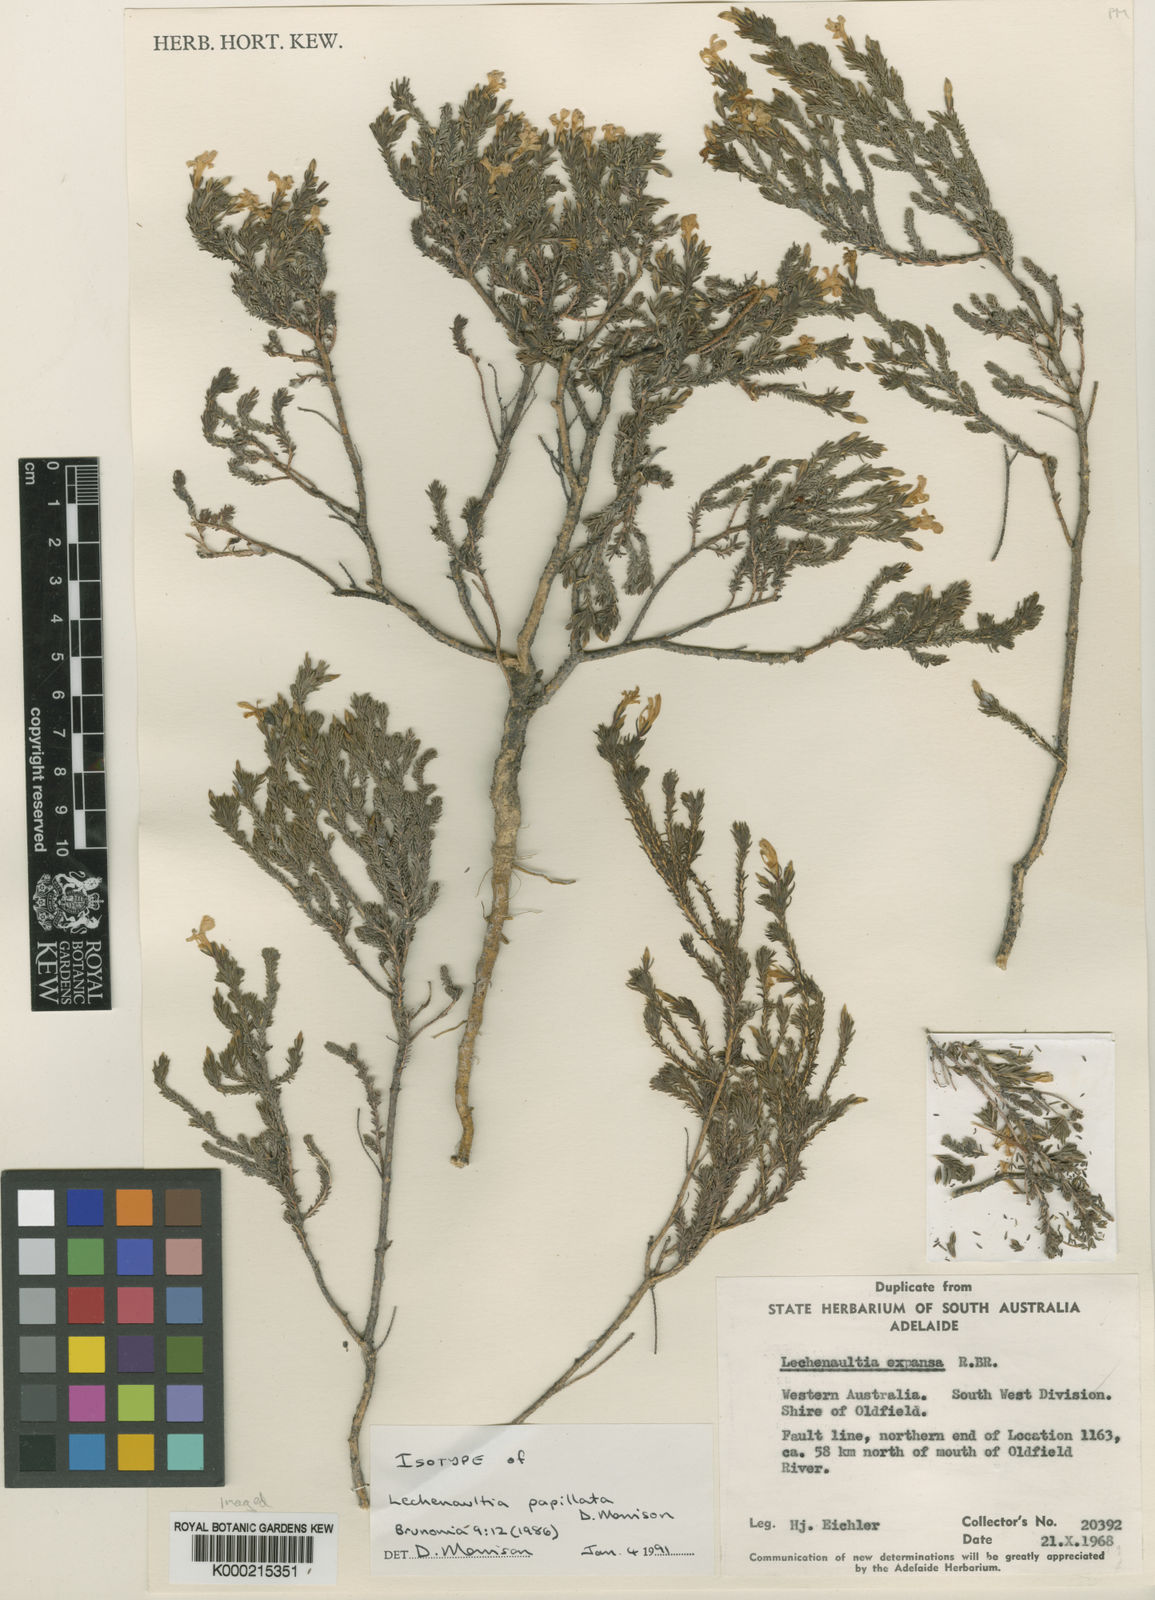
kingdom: Plantae
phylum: Tracheophyta
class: Magnoliopsida
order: Asterales
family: Goodeniaceae
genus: Leschenaultia
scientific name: Leschenaultia papillata
